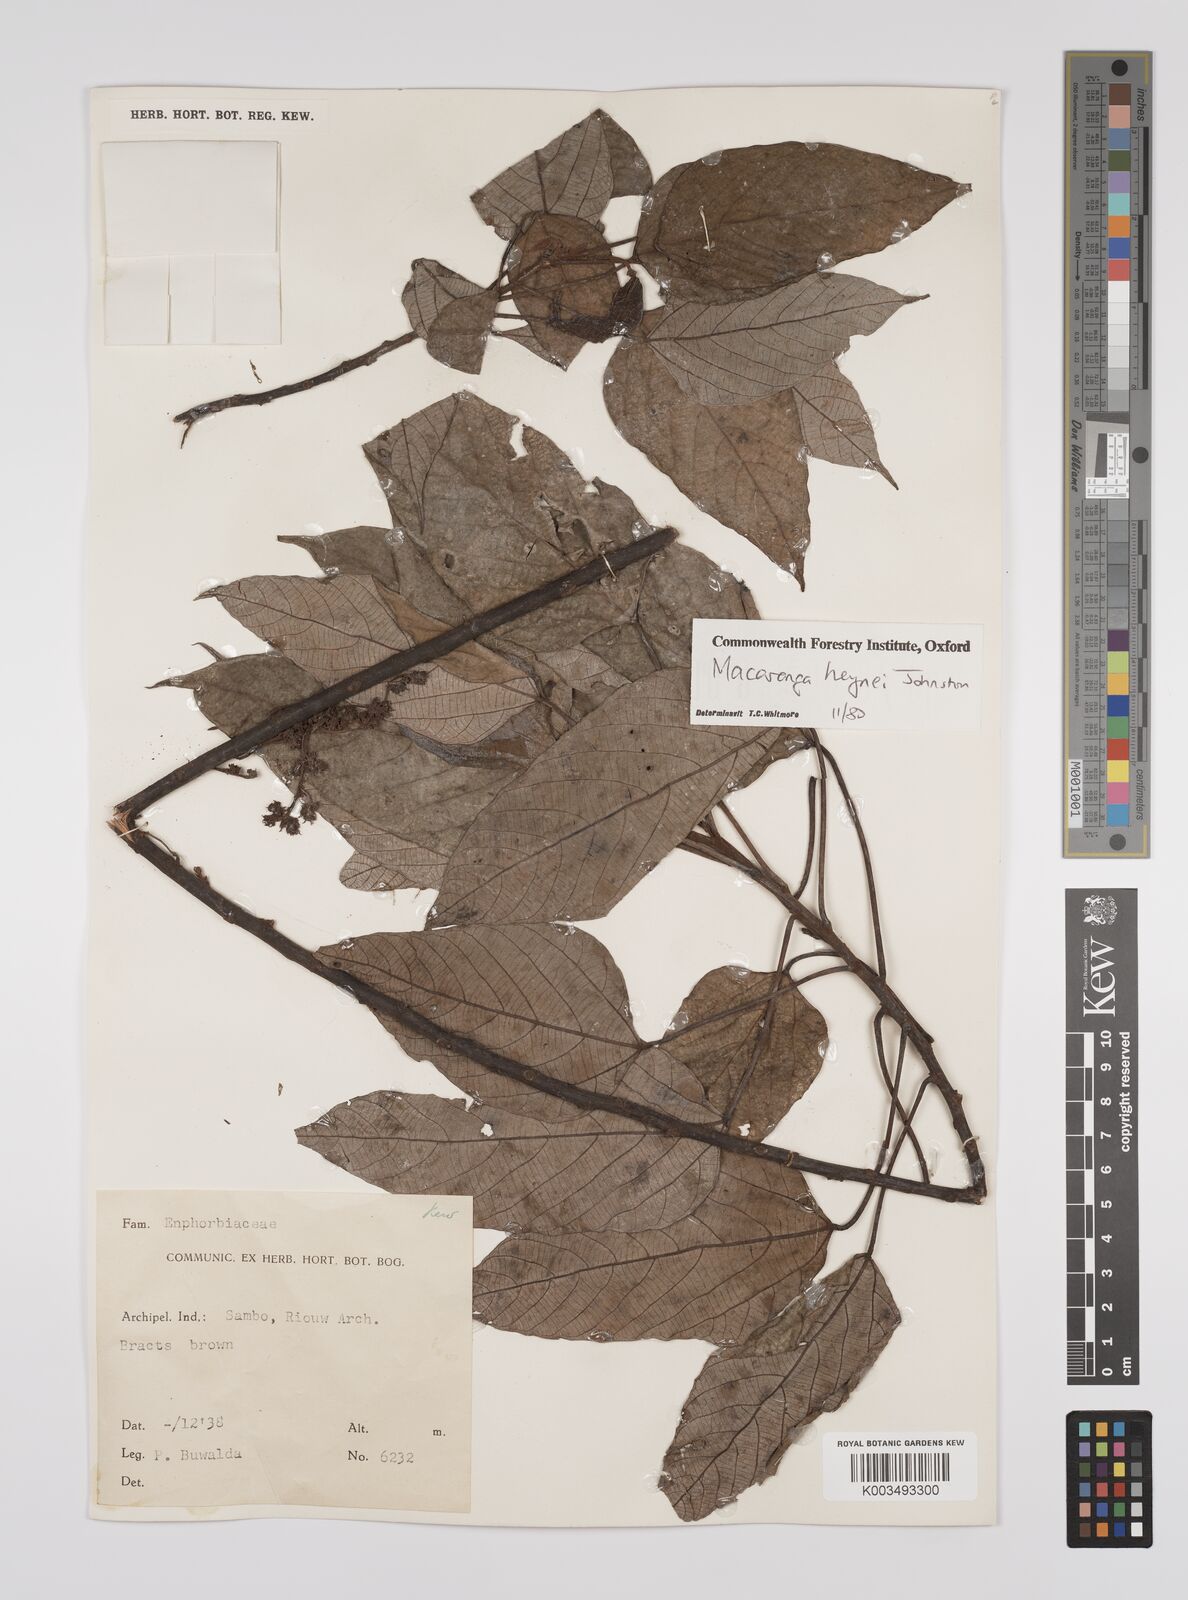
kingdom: Plantae
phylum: Tracheophyta
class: Magnoliopsida
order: Malpighiales
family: Euphorbiaceae
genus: Macaranga
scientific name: Macaranga heynei
